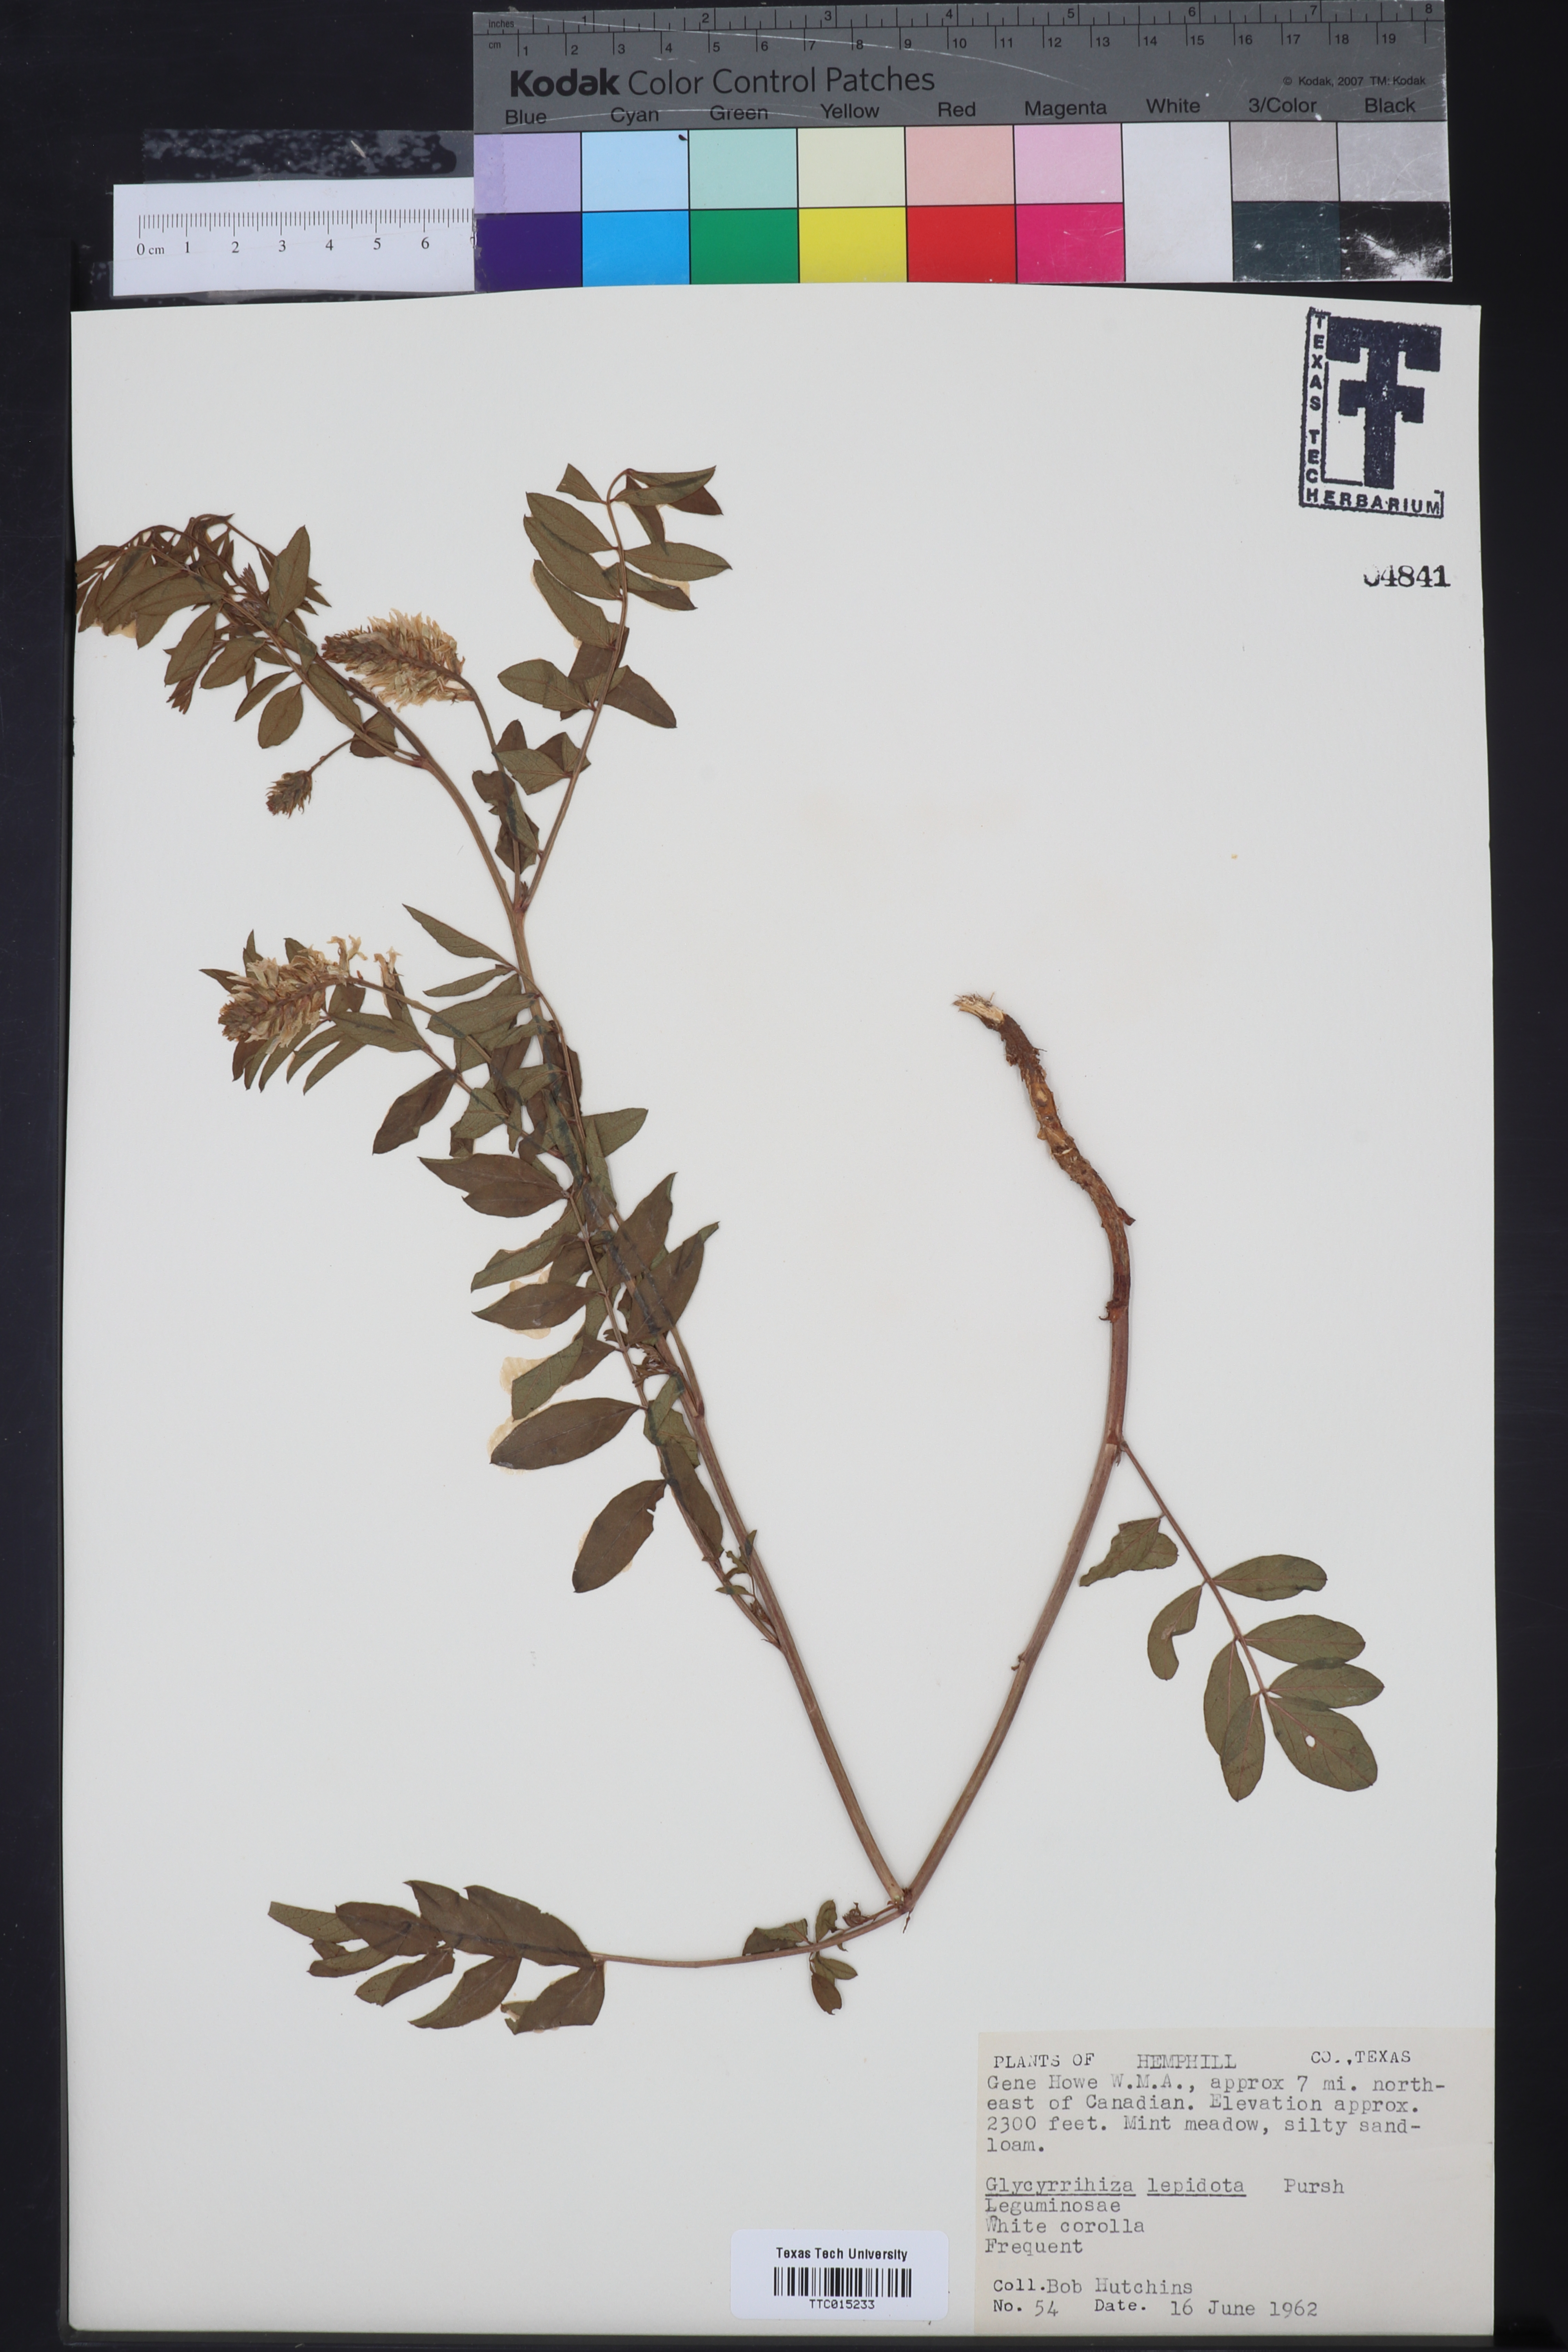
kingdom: Plantae
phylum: Tracheophyta
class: Magnoliopsida
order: Fabales
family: Fabaceae
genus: Glycyrrhiza
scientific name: Glycyrrhiza lepidota
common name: American liquorice
